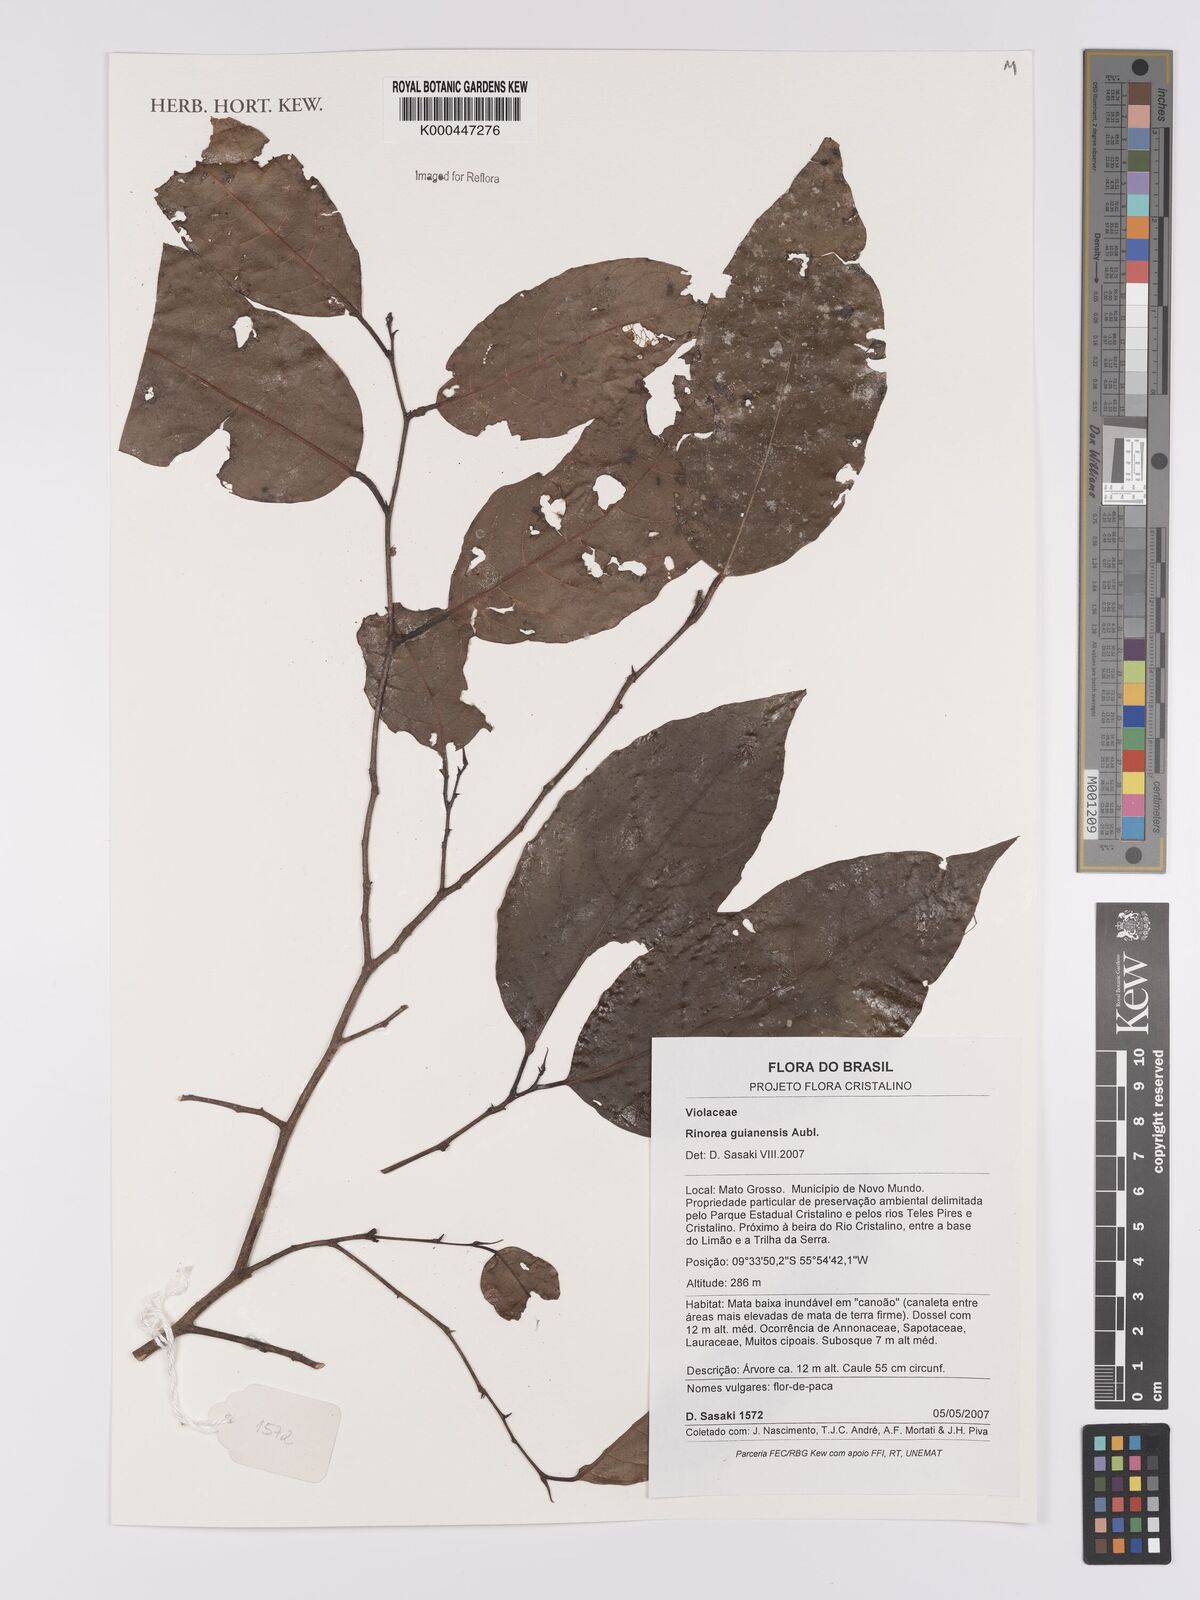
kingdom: Plantae
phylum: Tracheophyta
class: Magnoliopsida
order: Malpighiales
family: Violaceae
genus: Rinorea
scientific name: Rinorea guianensis
